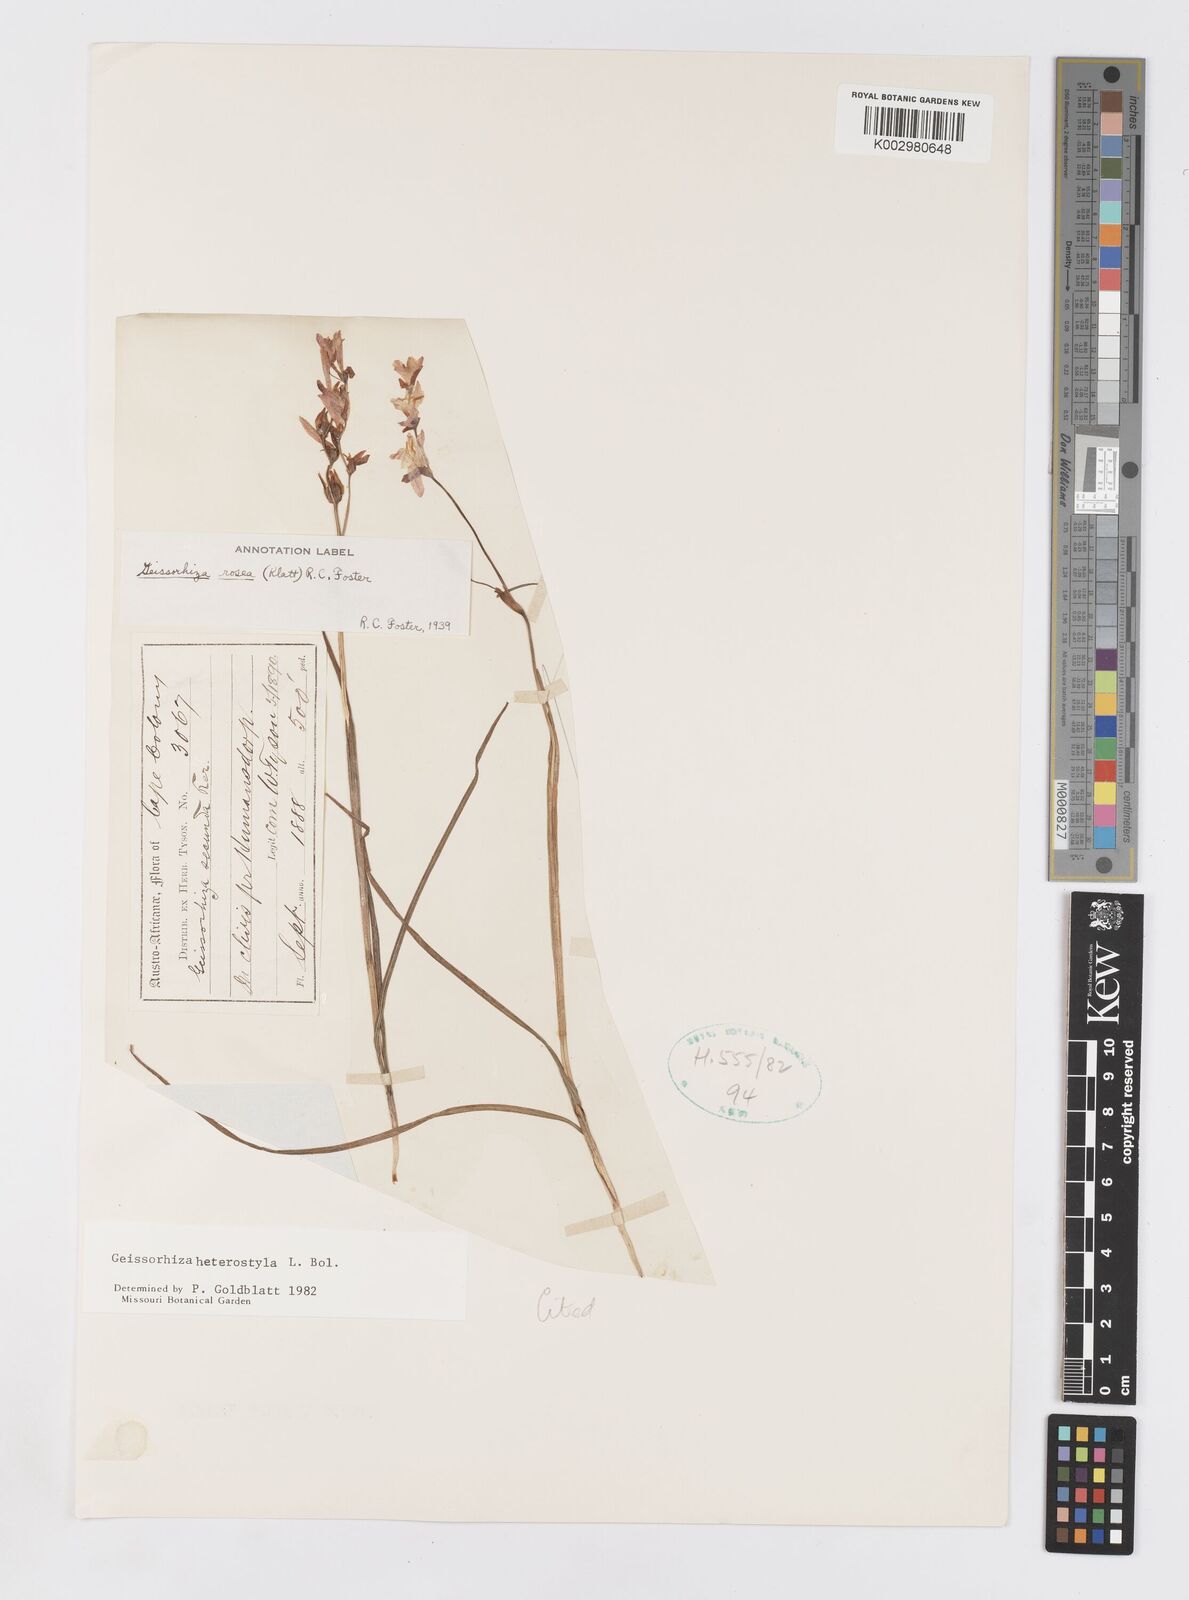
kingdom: Plantae
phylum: Tracheophyta
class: Liliopsida
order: Asparagales
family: Iridaceae
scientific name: Iridaceae
